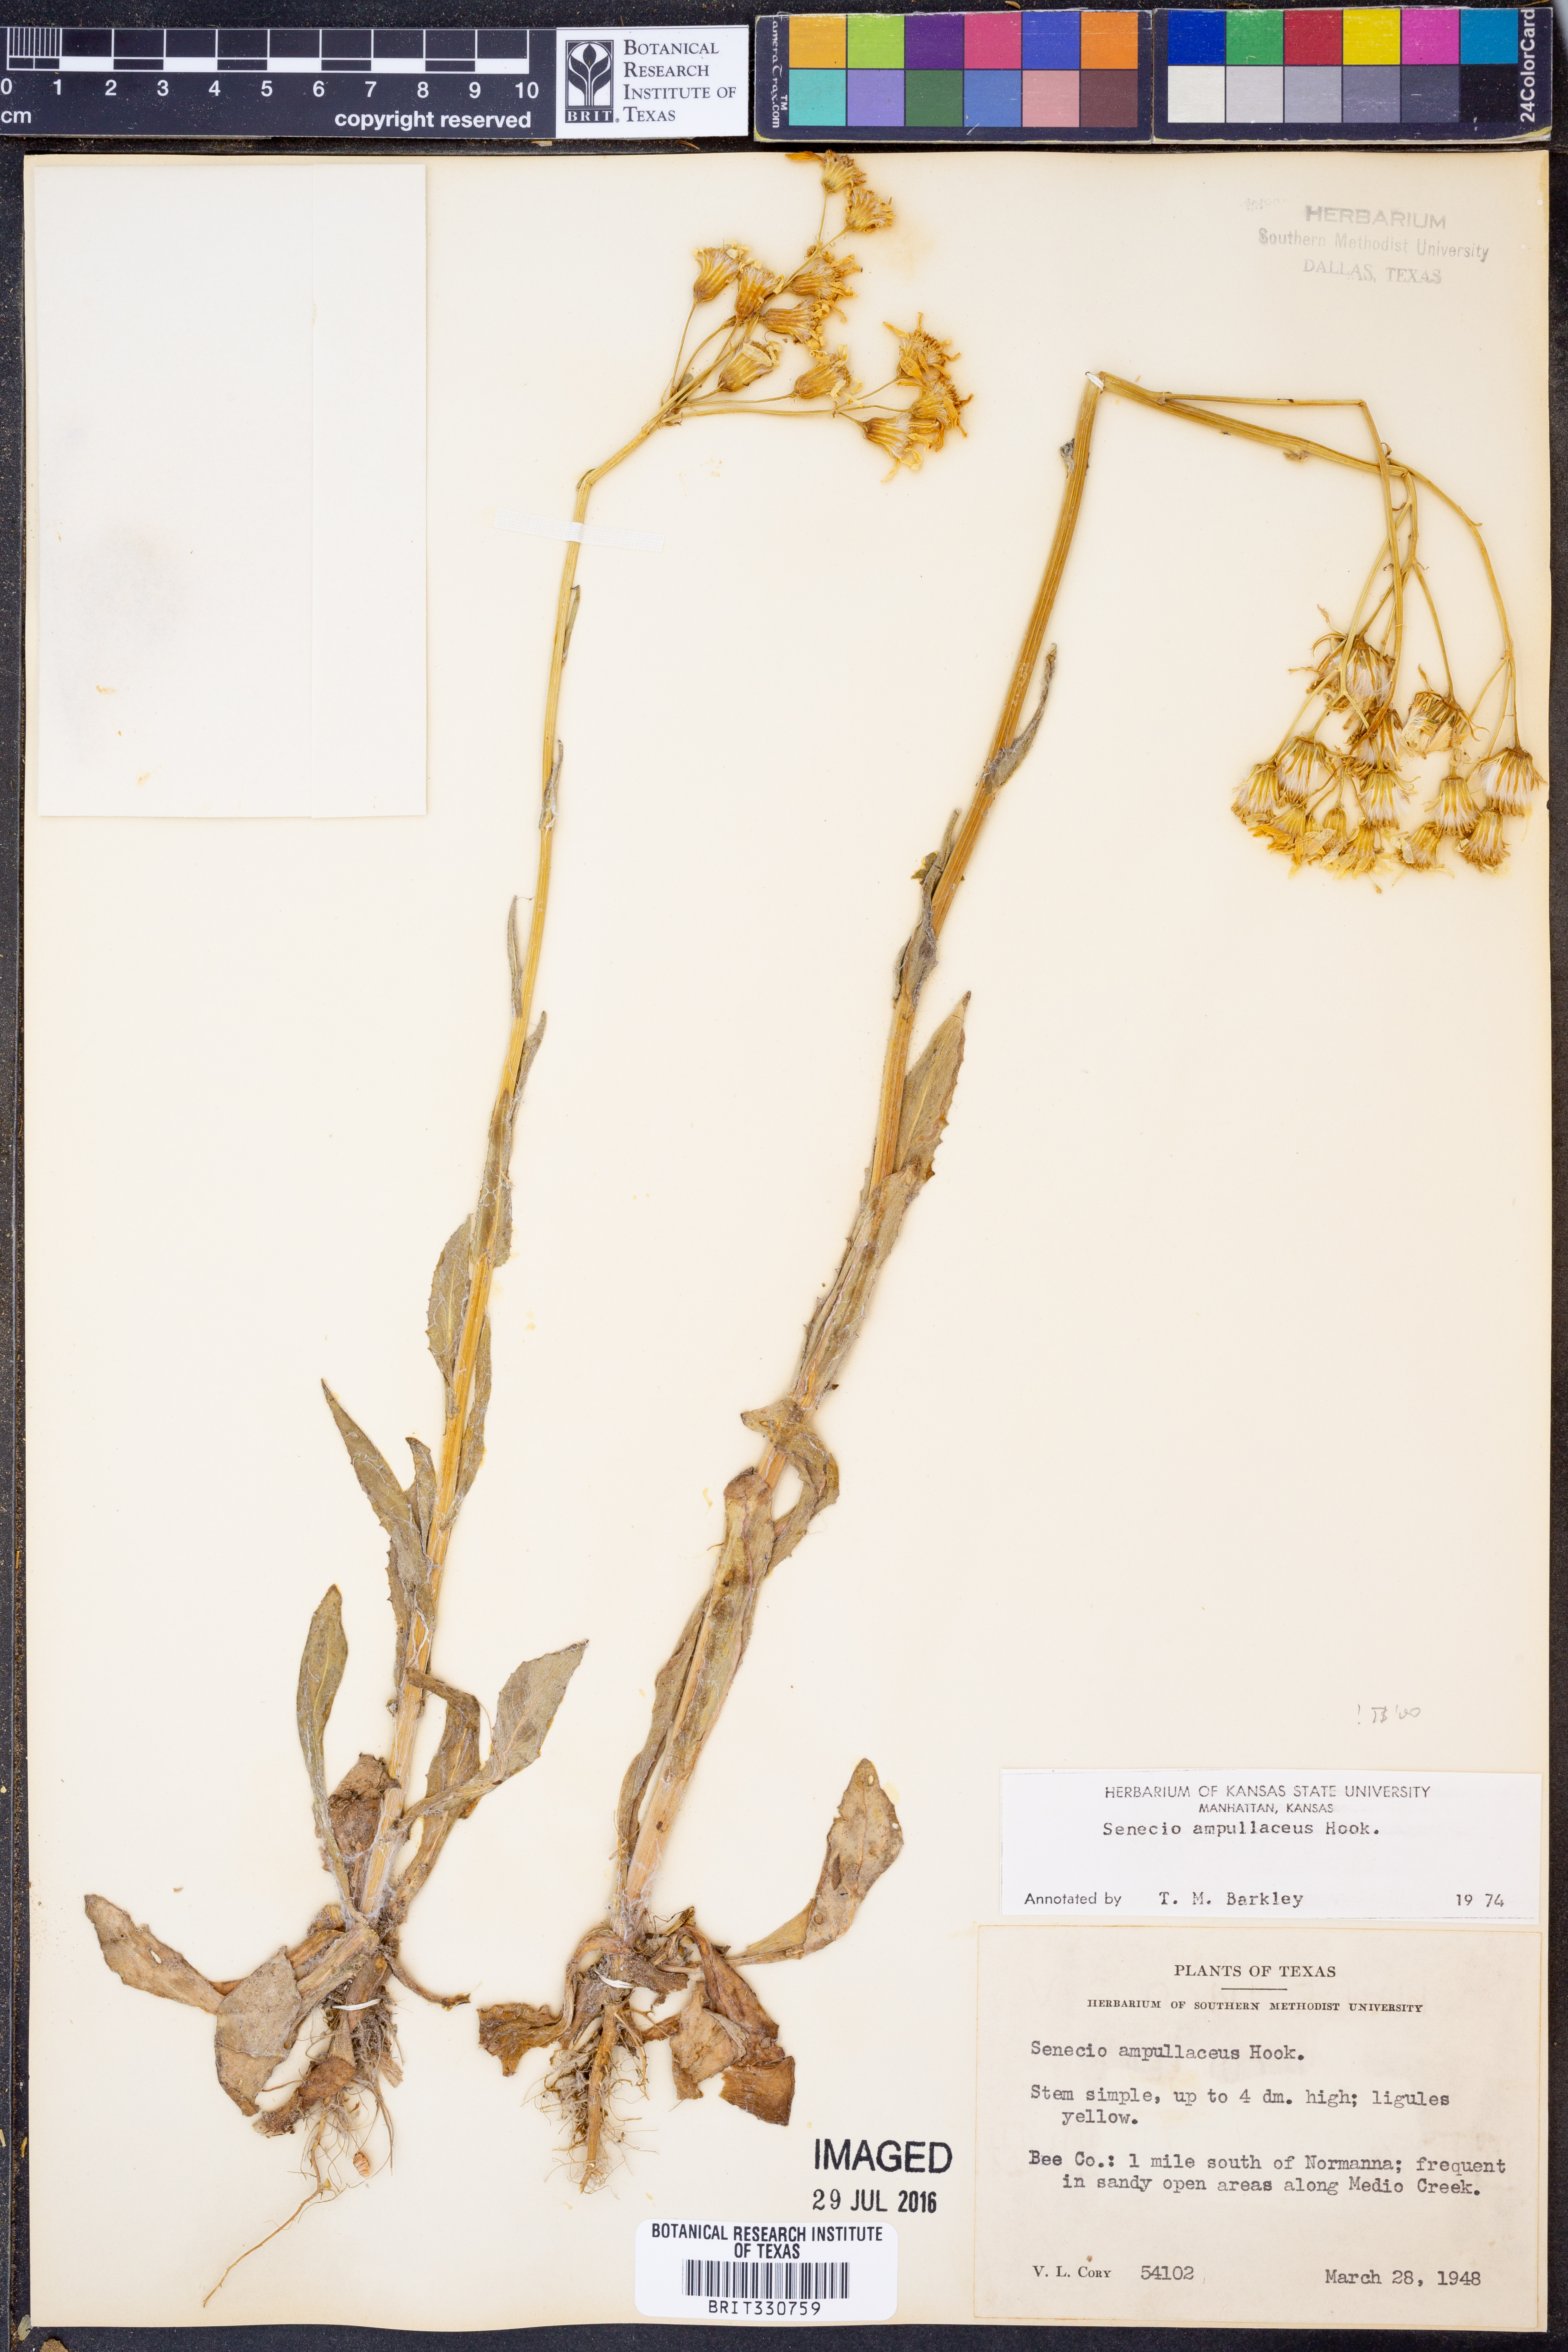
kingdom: Plantae
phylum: Tracheophyta
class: Magnoliopsida
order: Asterales
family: Asteraceae
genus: Senecio
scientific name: Senecio ampullaceus
